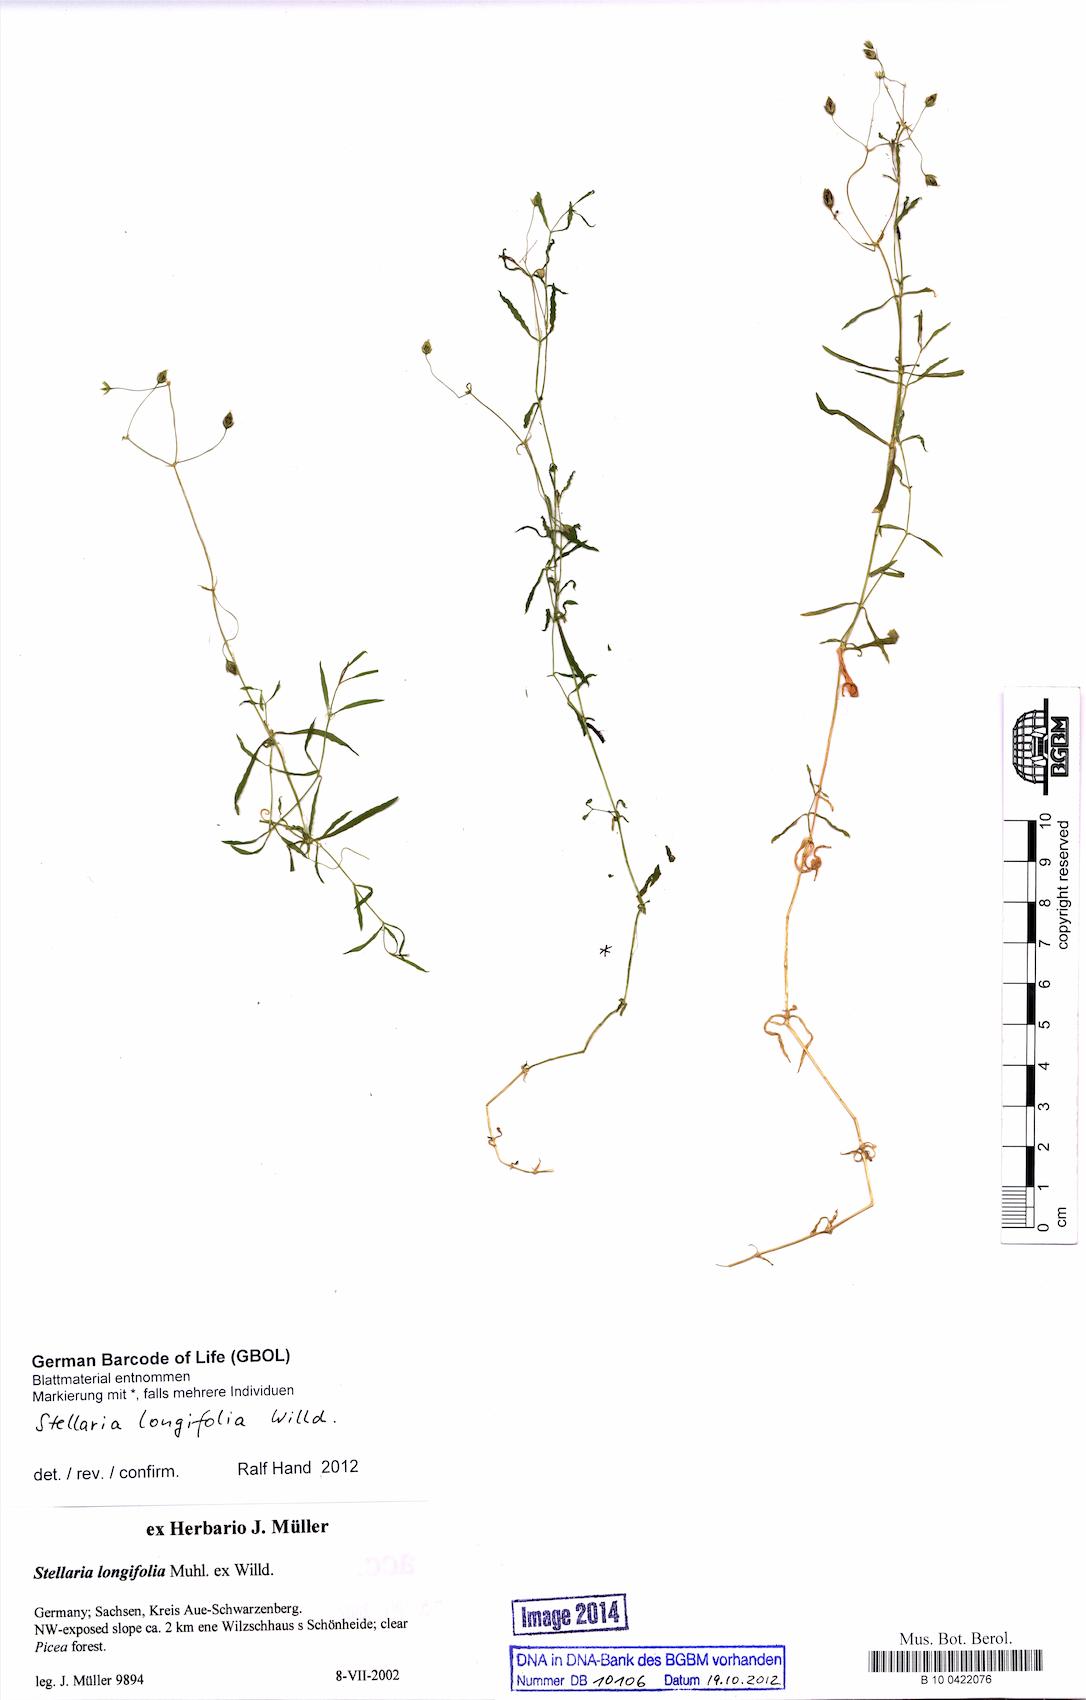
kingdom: Plantae
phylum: Tracheophyta
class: Magnoliopsida
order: Caryophyllales
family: Caryophyllaceae
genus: Stellaria
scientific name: Stellaria longifolia
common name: Long-leaved chickweed
